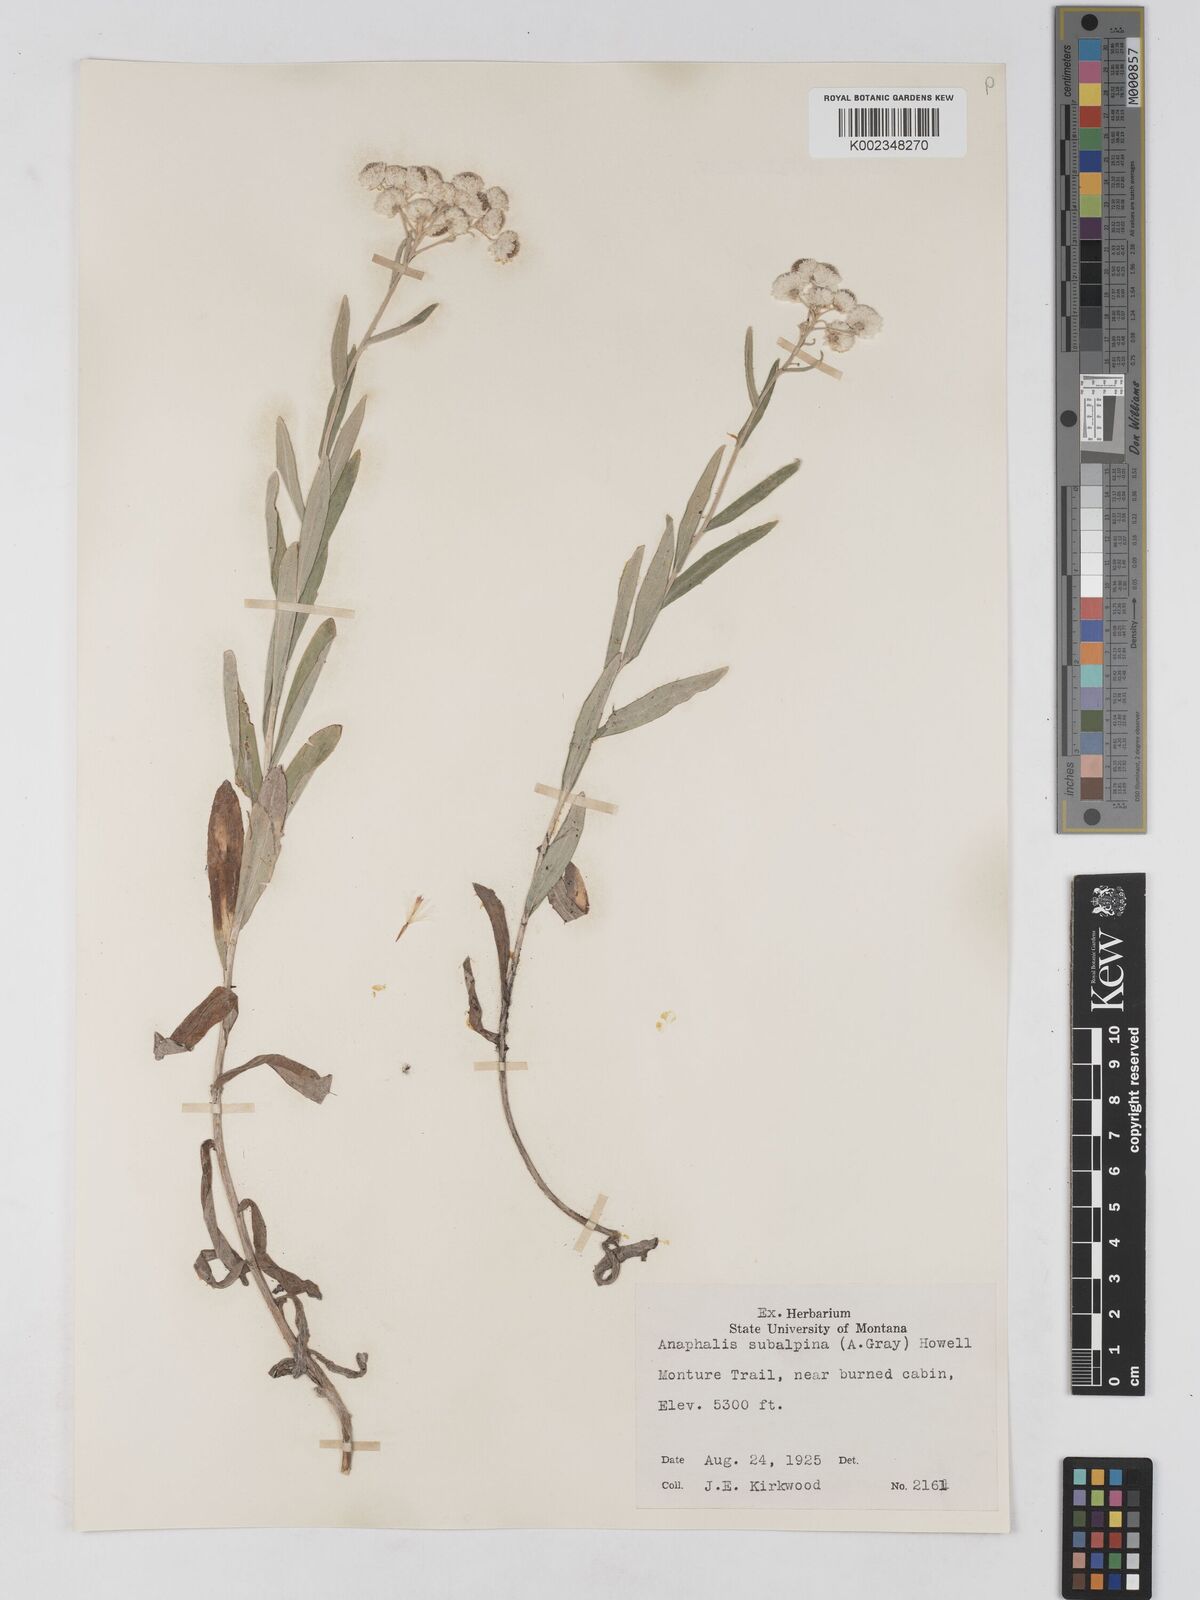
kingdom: Plantae
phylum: Tracheophyta
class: Magnoliopsida
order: Asterales
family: Asteraceae
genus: Anaphalis
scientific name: Anaphalis margaritacea
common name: Pearly everlasting
